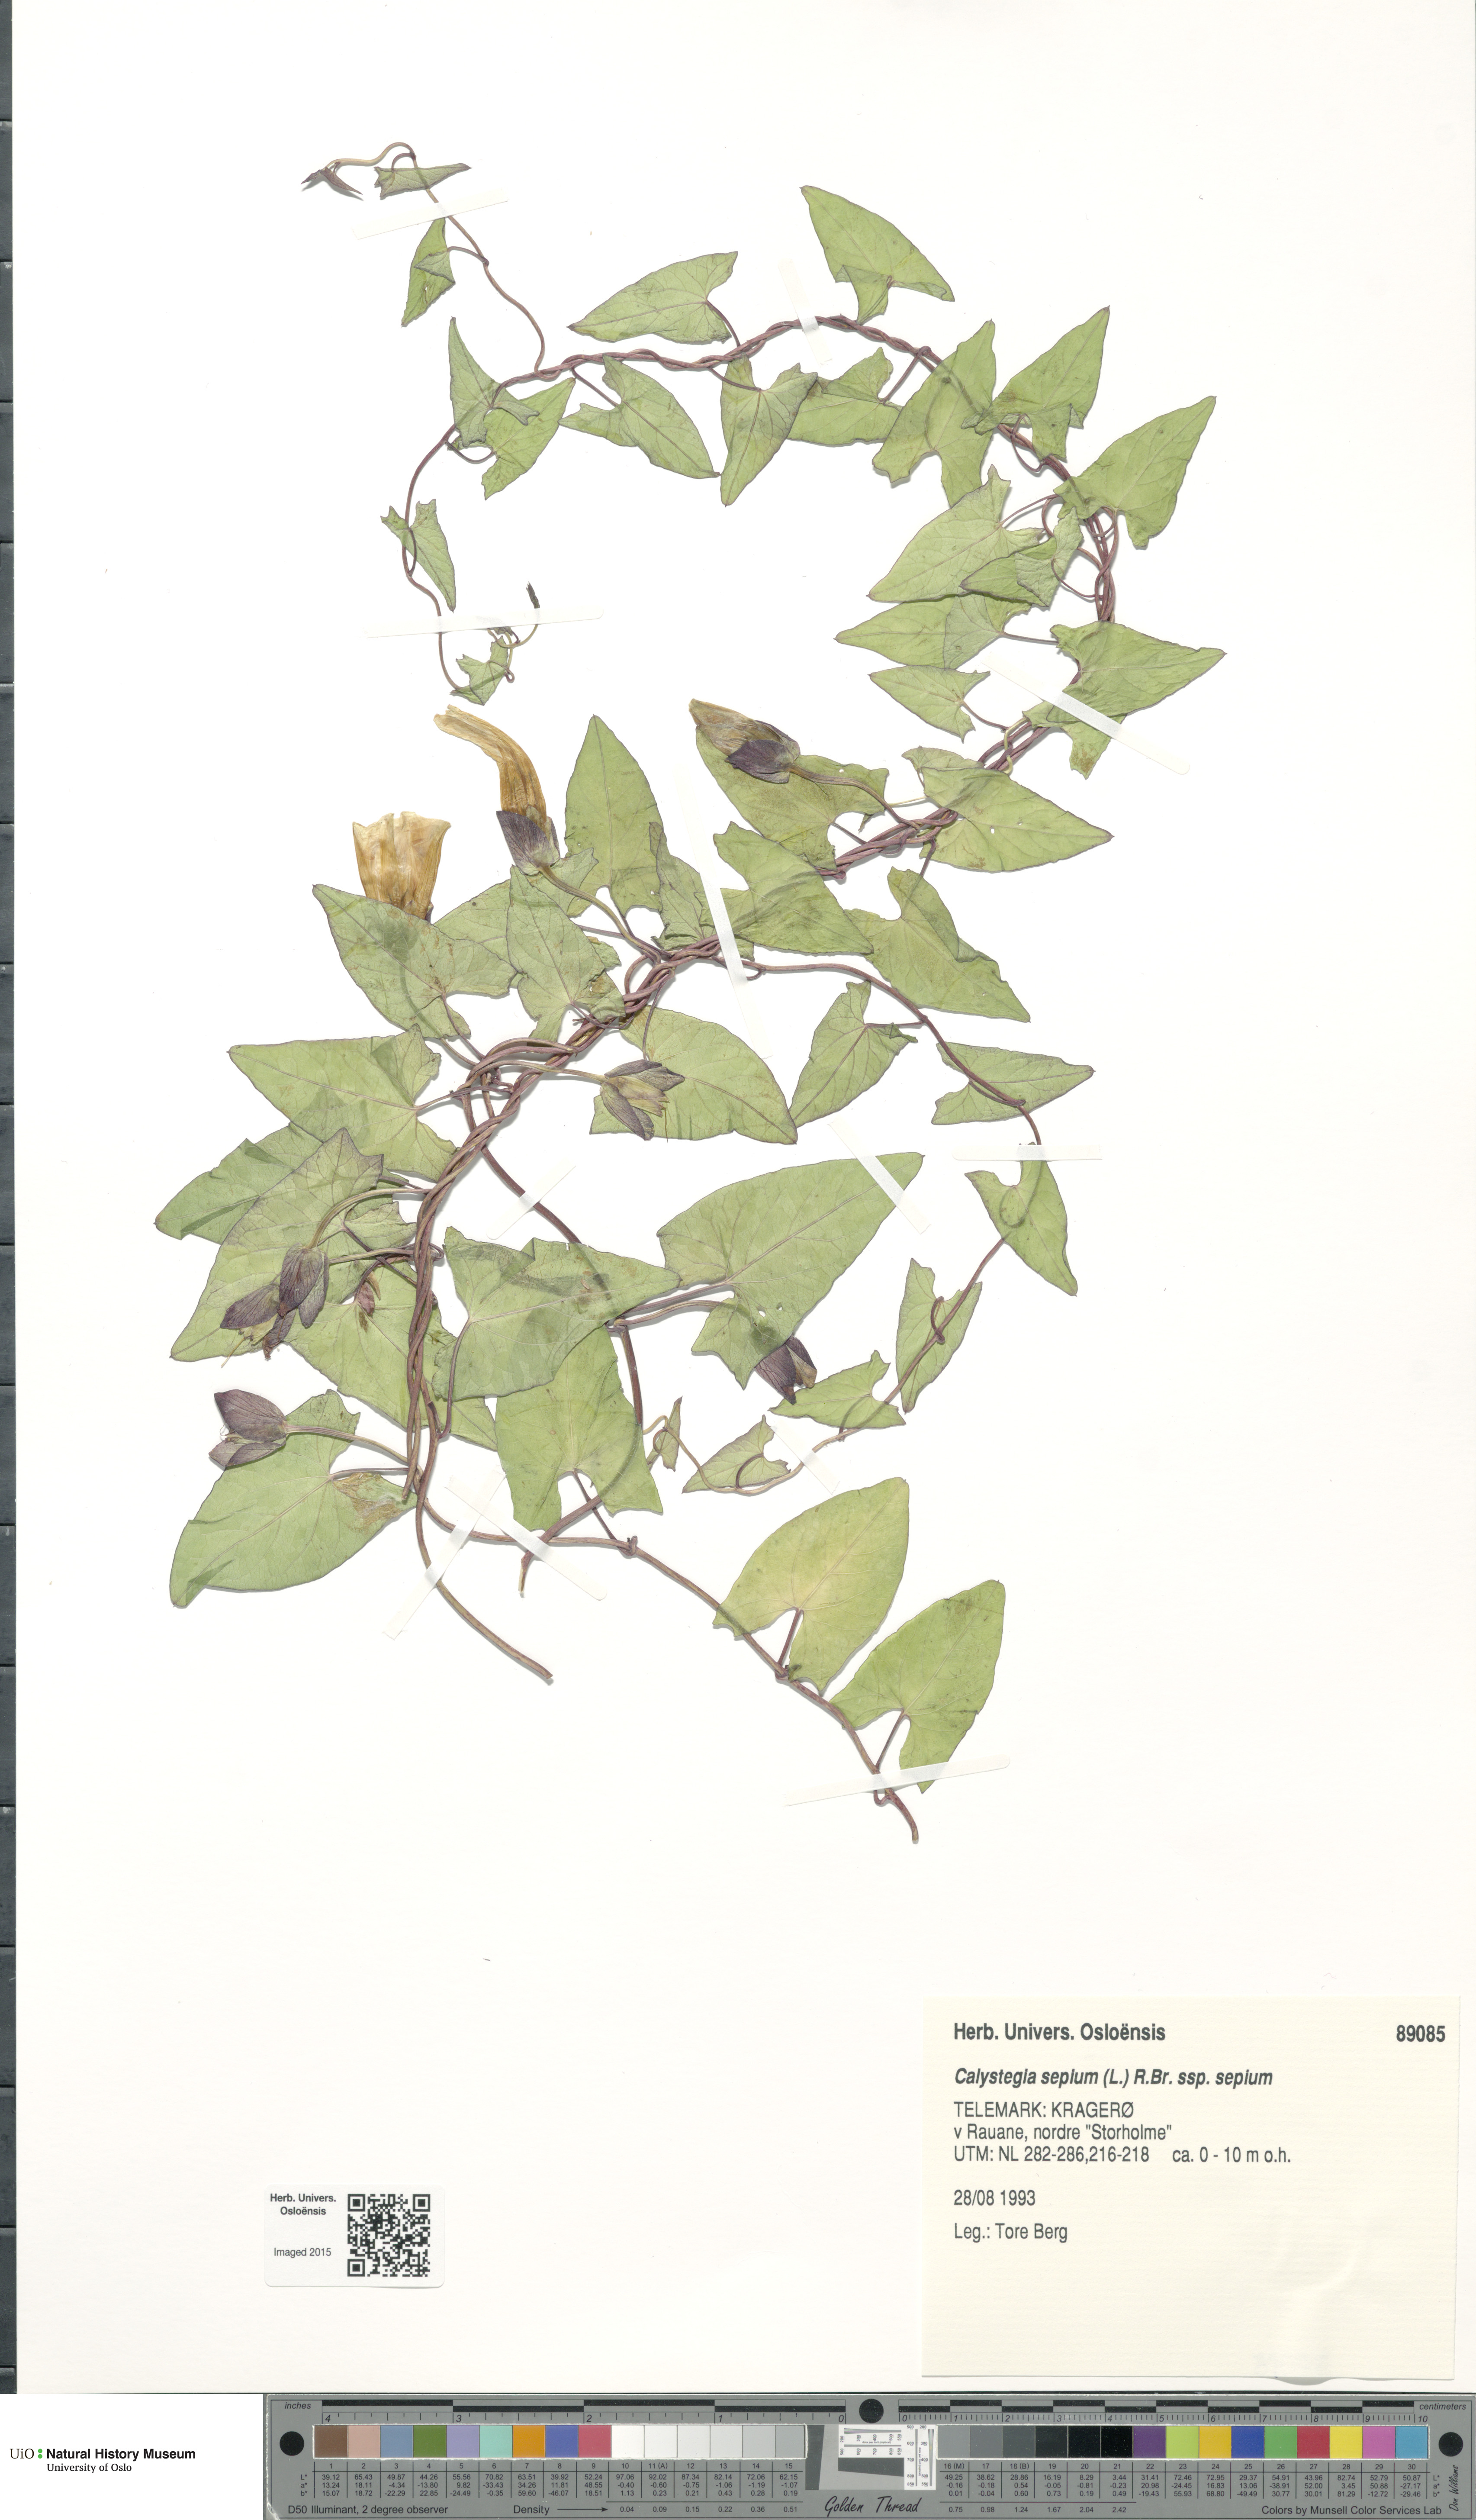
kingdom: Plantae
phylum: Tracheophyta
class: Magnoliopsida
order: Solanales
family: Convolvulaceae
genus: Calystegia
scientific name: Calystegia sepium
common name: Hedge bindweed
